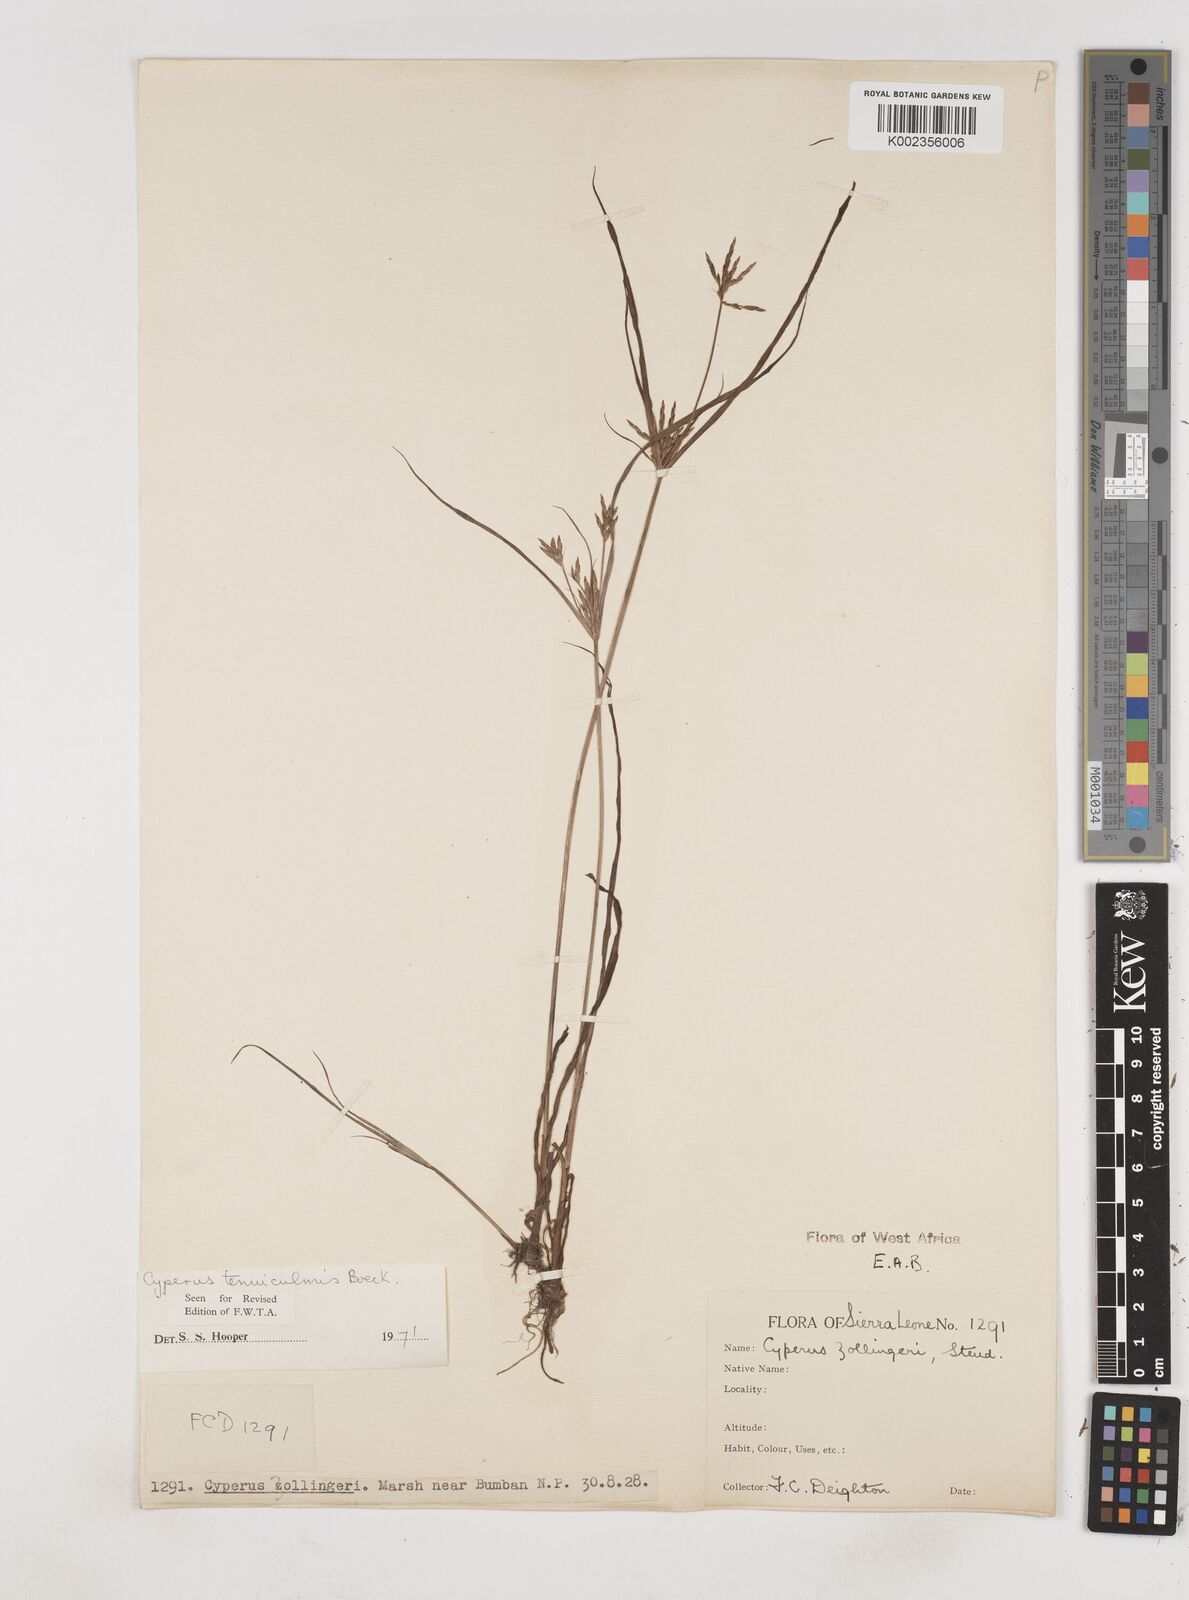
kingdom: Plantae
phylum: Tracheophyta
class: Liliopsida
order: Poales
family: Cyperaceae
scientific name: Cyperaceae
